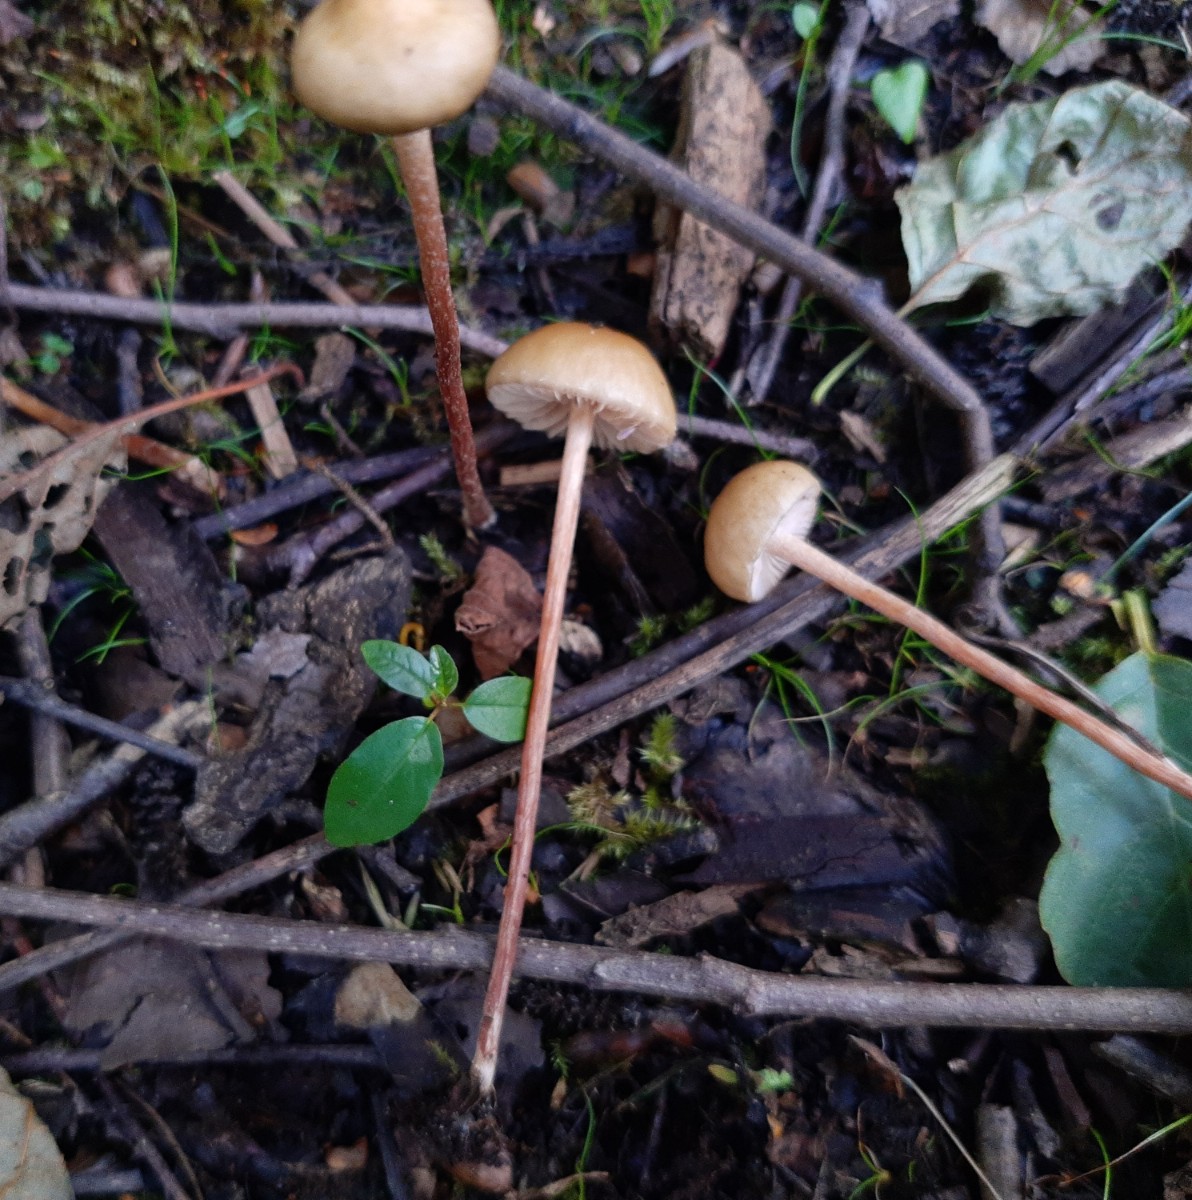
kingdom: Fungi
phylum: Basidiomycota
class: Agaricomycetes
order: Agaricales
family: Strophariaceae
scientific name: Strophariaceae
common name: bredbladfamilien
